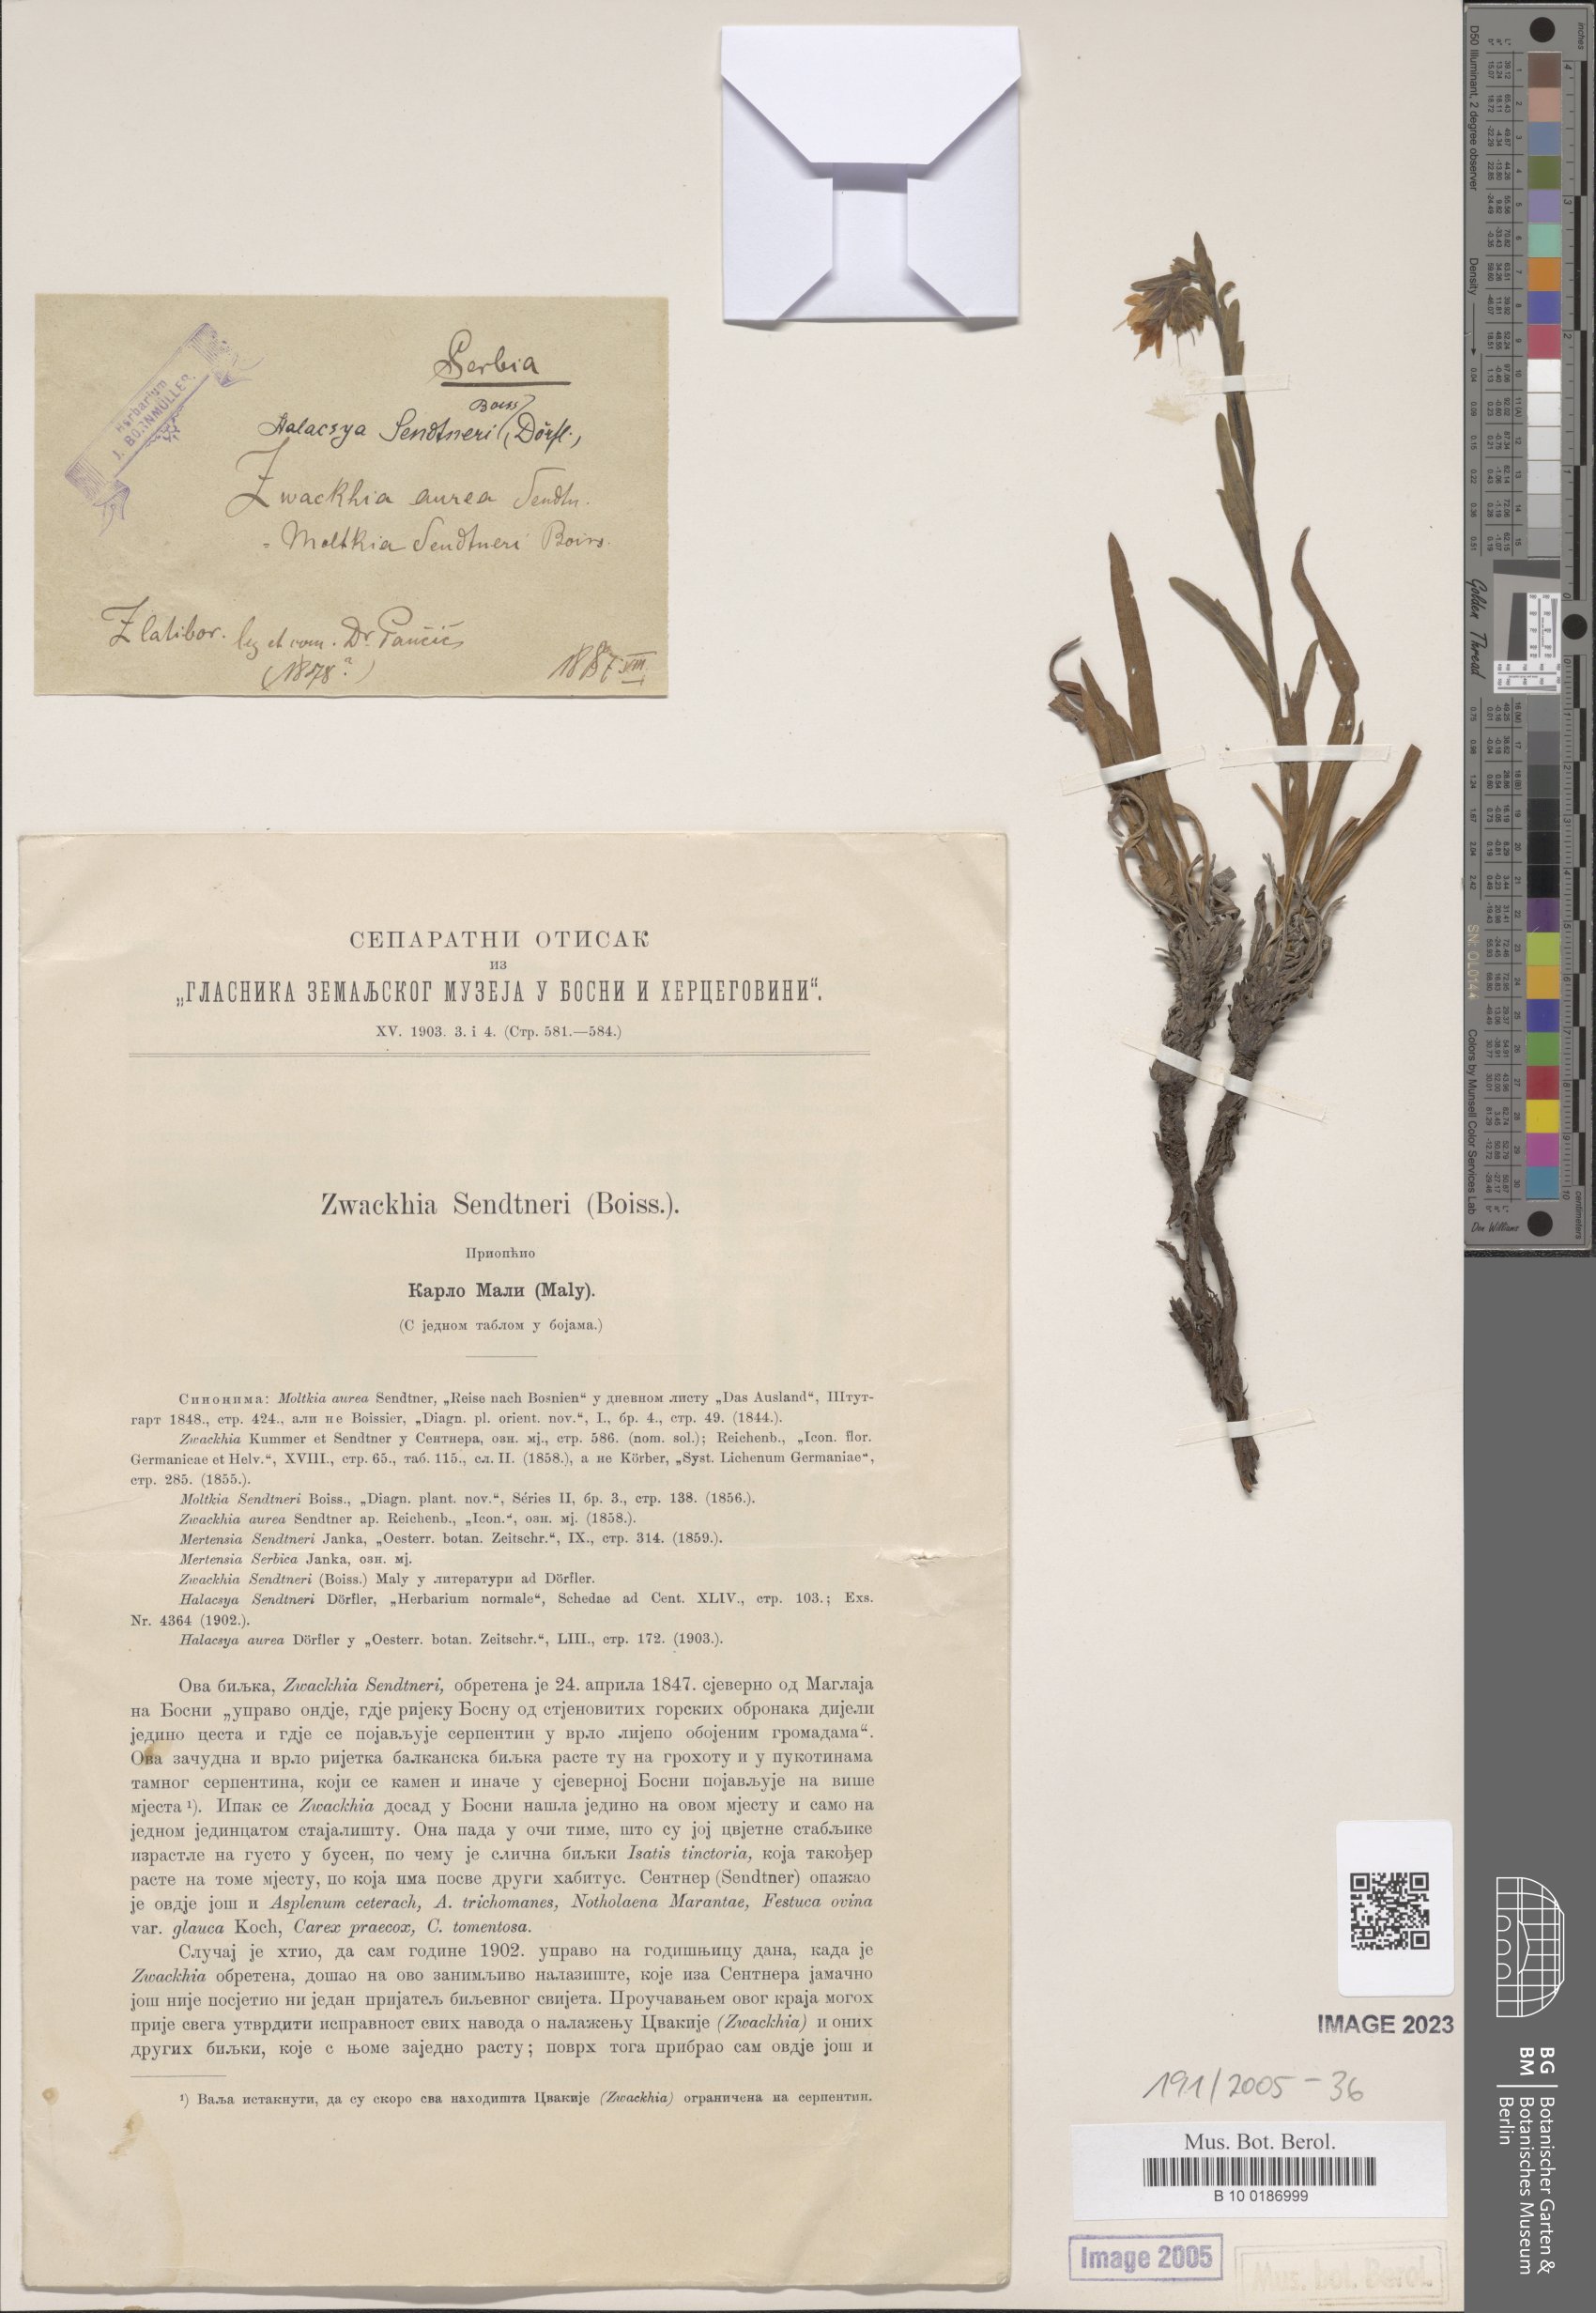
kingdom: Plantae
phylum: Tracheophyta
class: Magnoliopsida
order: Boraginales
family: Boraginaceae
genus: Halacsya
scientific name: Halacsya sendtneri
